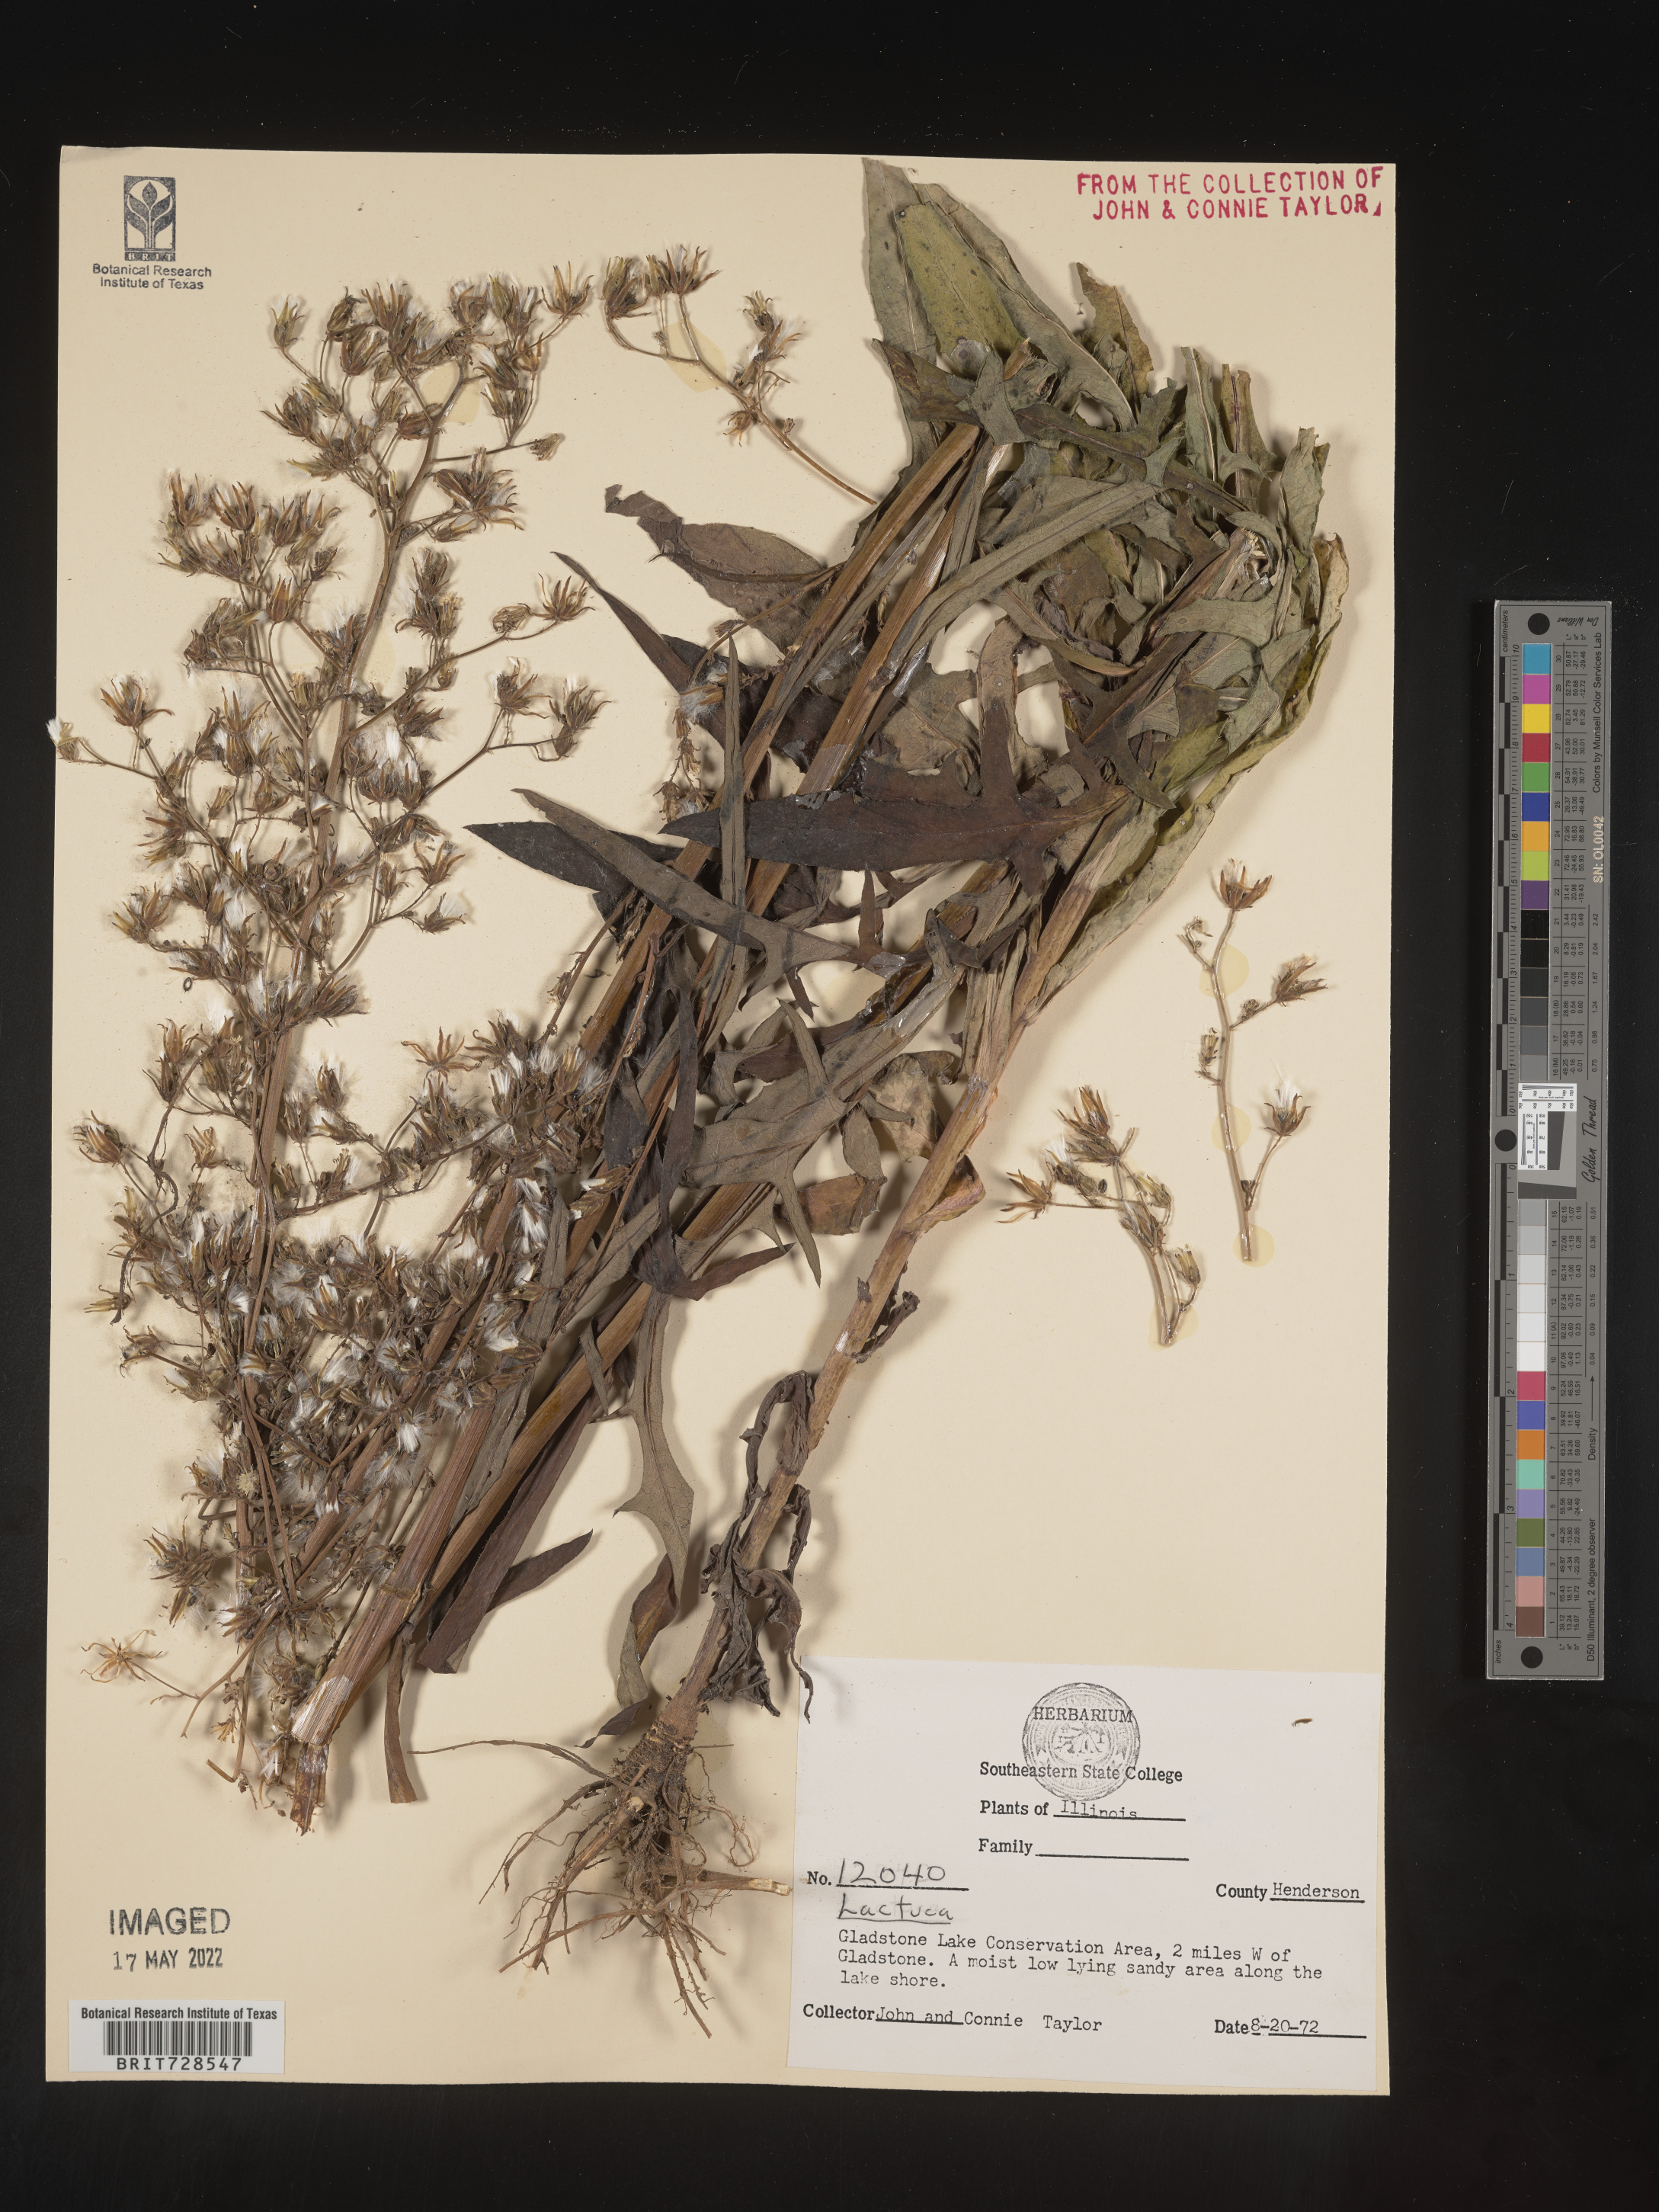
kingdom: Plantae
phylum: Tracheophyta
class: Magnoliopsida
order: Asterales
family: Asteraceae
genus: Lactuca
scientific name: Lactuca
